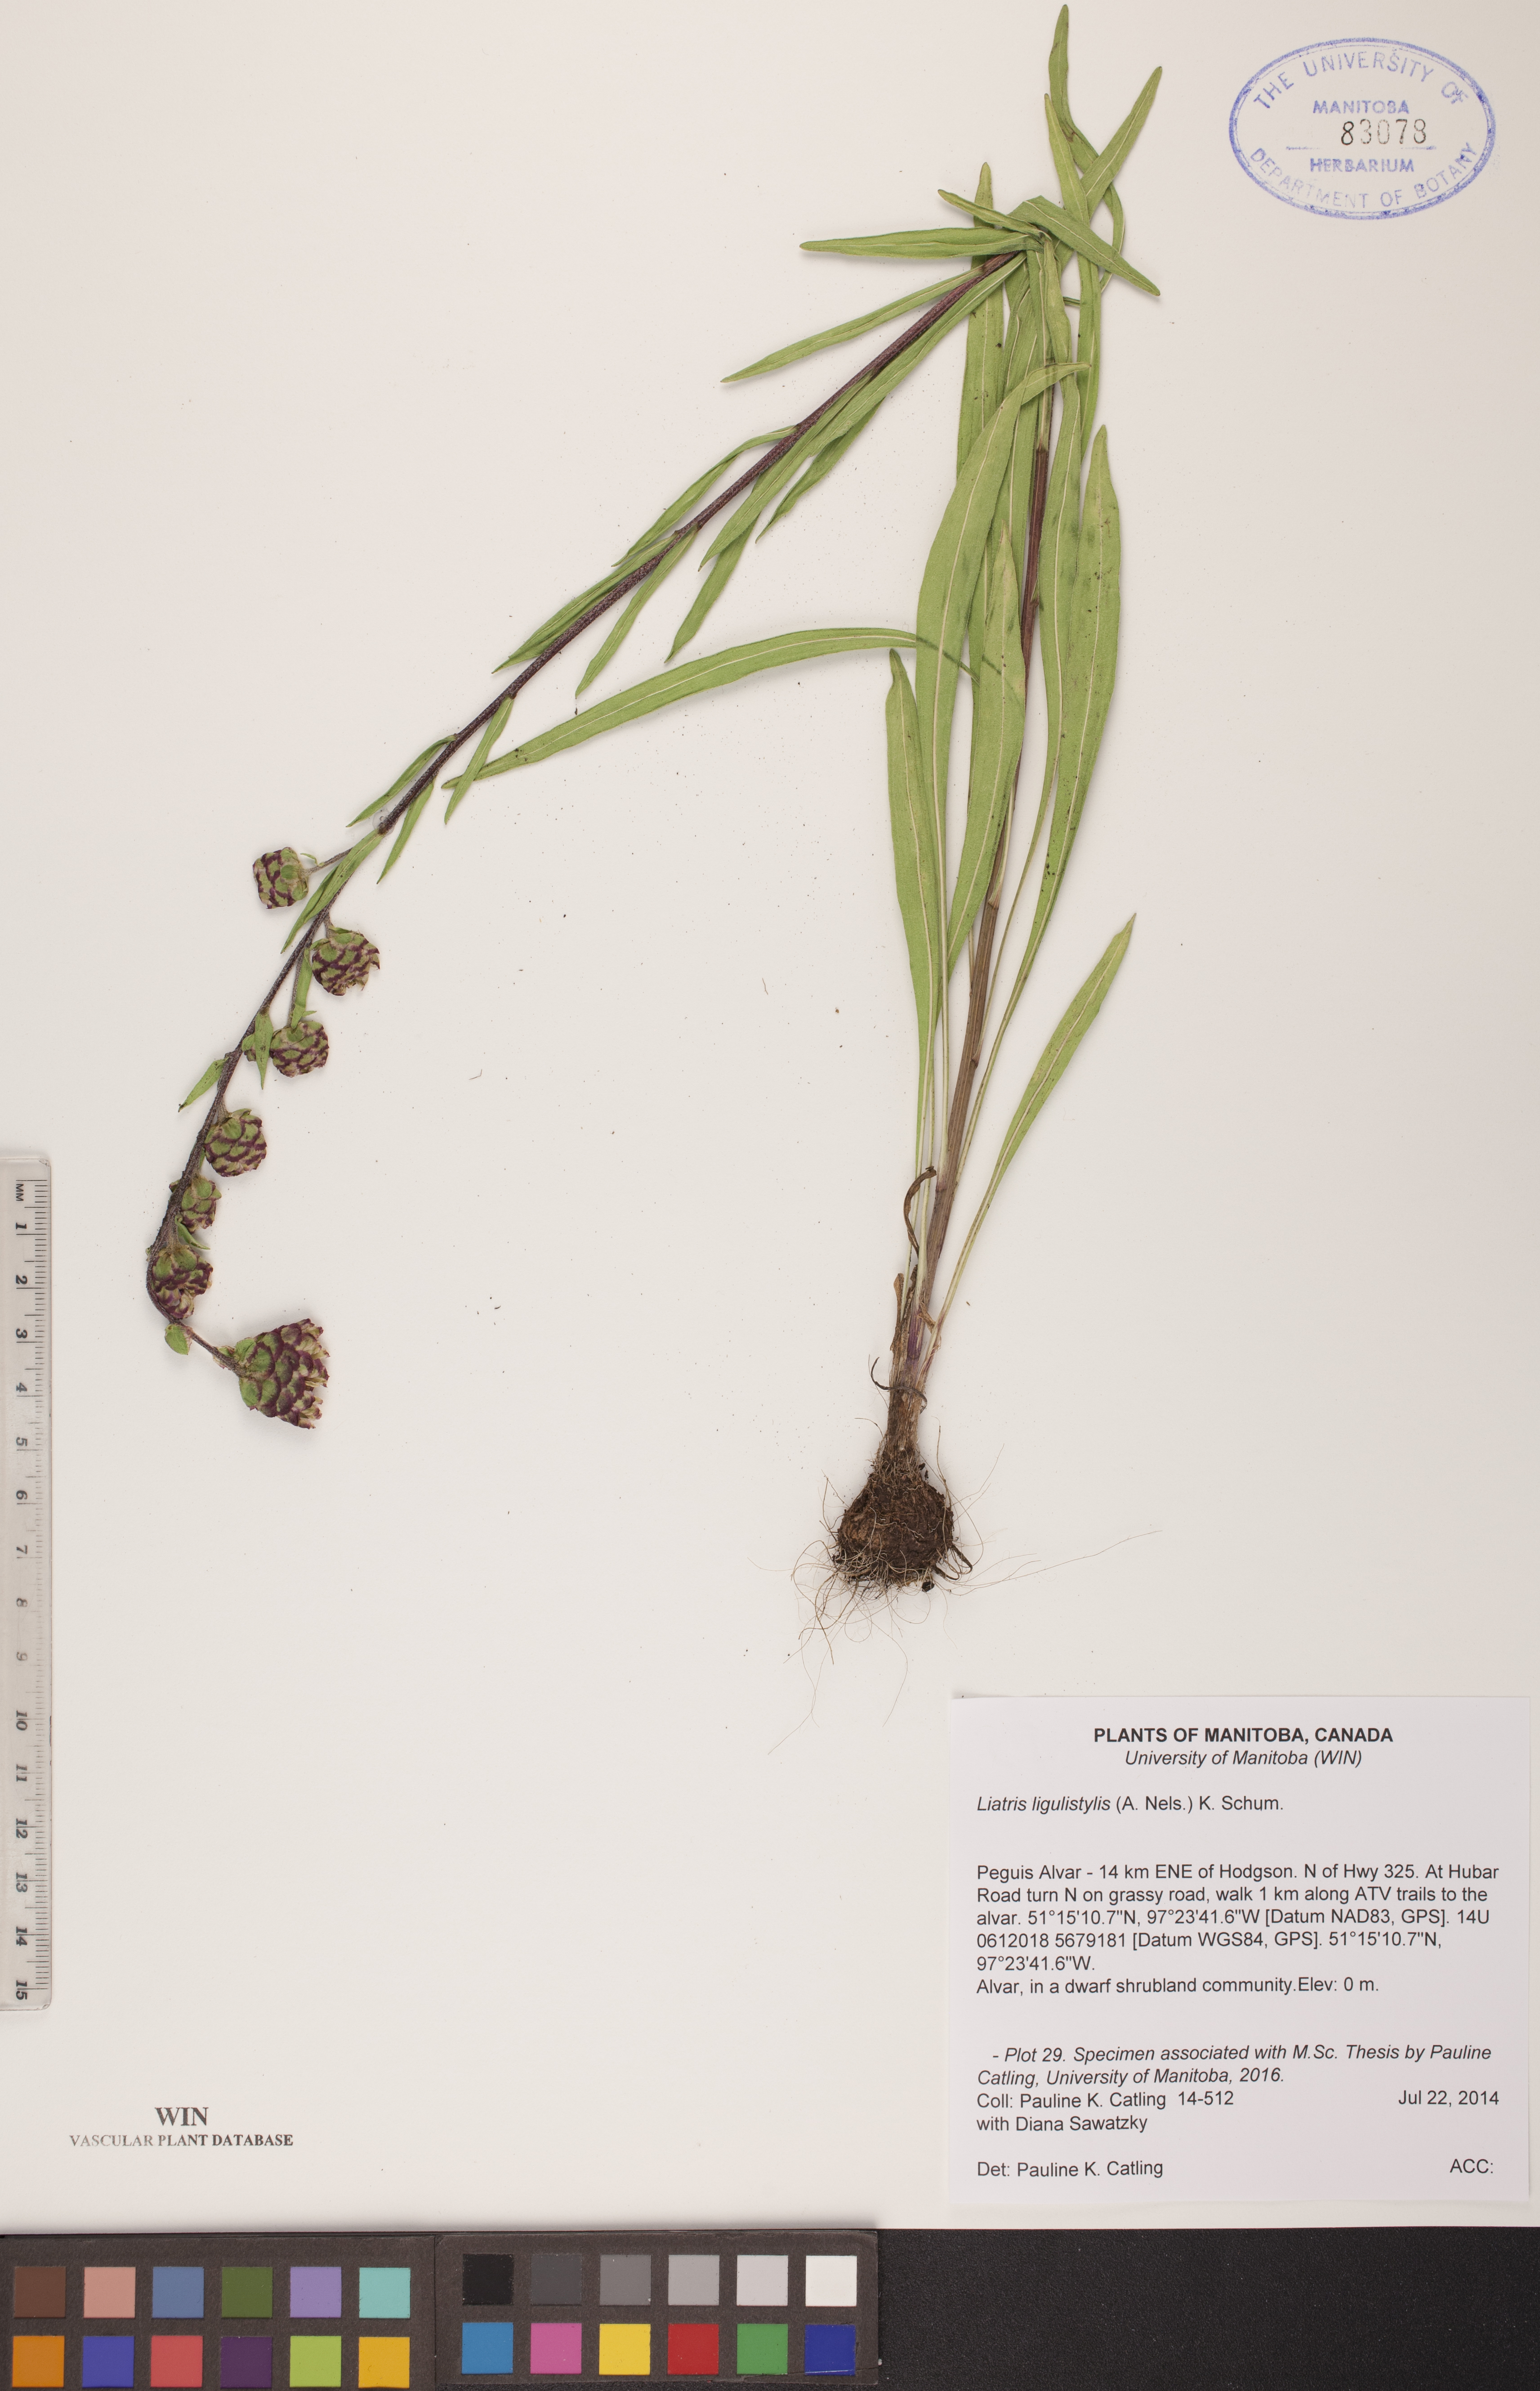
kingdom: Plantae
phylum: Tracheophyta
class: Magnoliopsida
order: Asterales
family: Asteraceae
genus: Liatris
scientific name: Liatris ligulistylis
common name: Northern plains gayfeather
